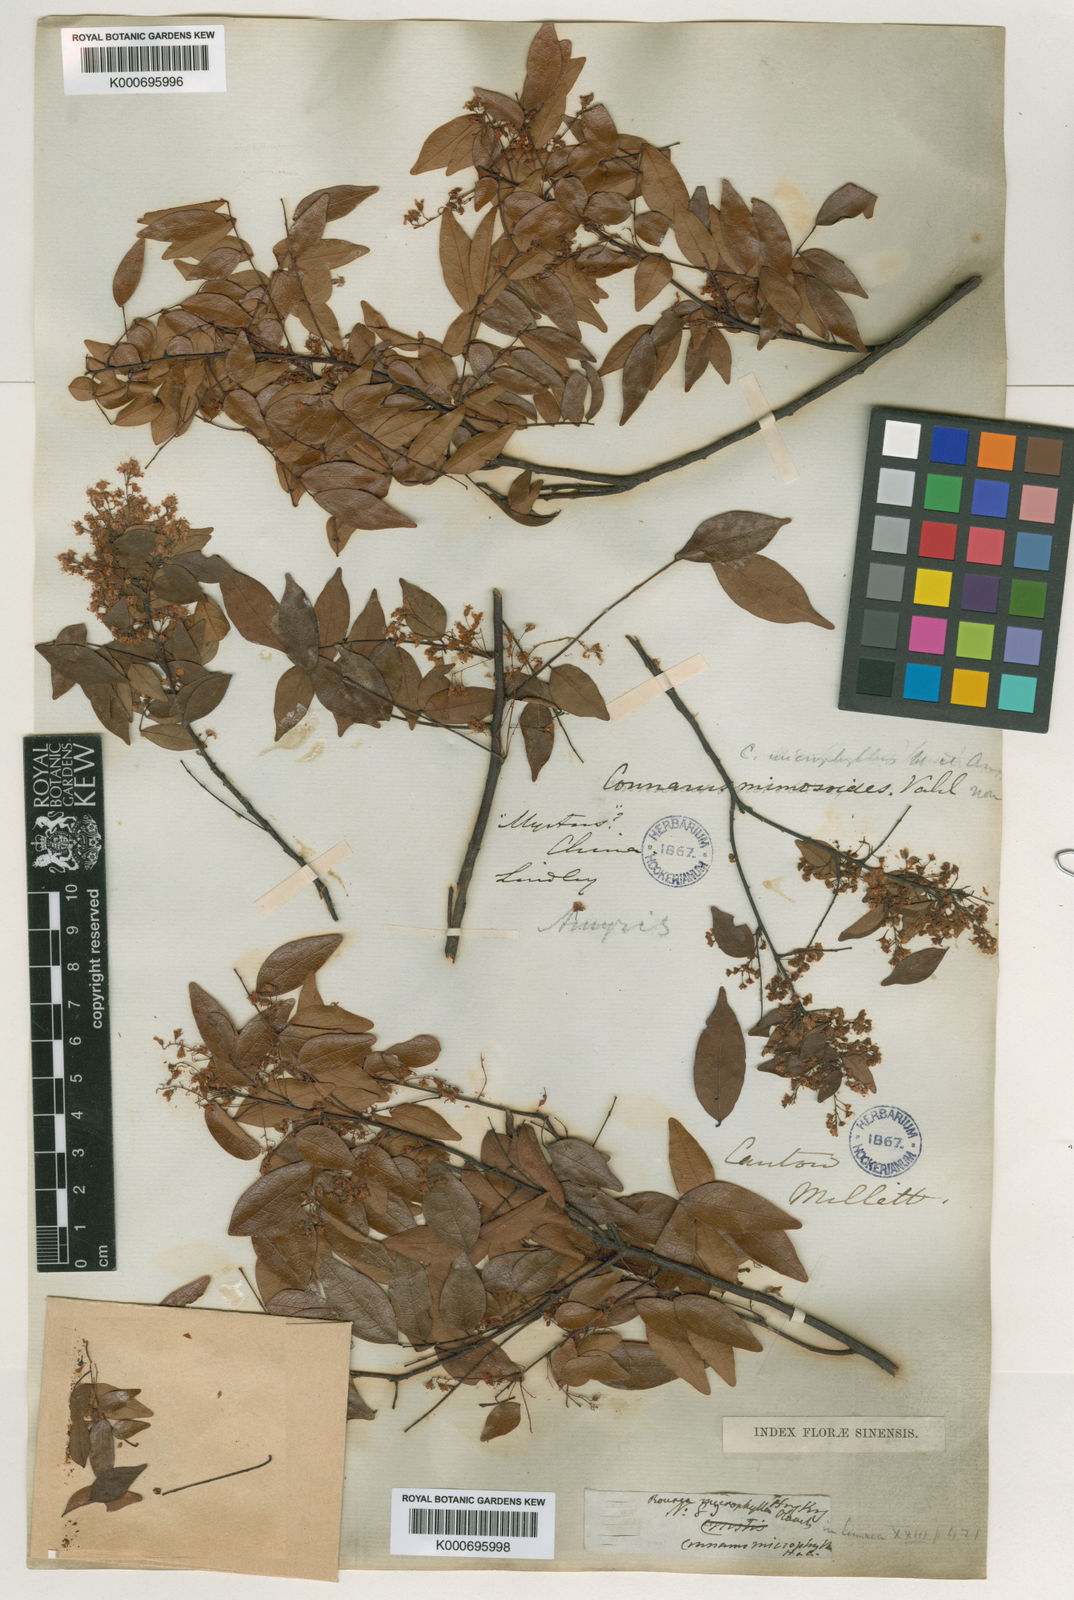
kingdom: Plantae
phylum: Tracheophyta
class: Magnoliopsida
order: Oxalidales
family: Connaraceae
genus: Rourea
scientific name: Rourea microphylla
